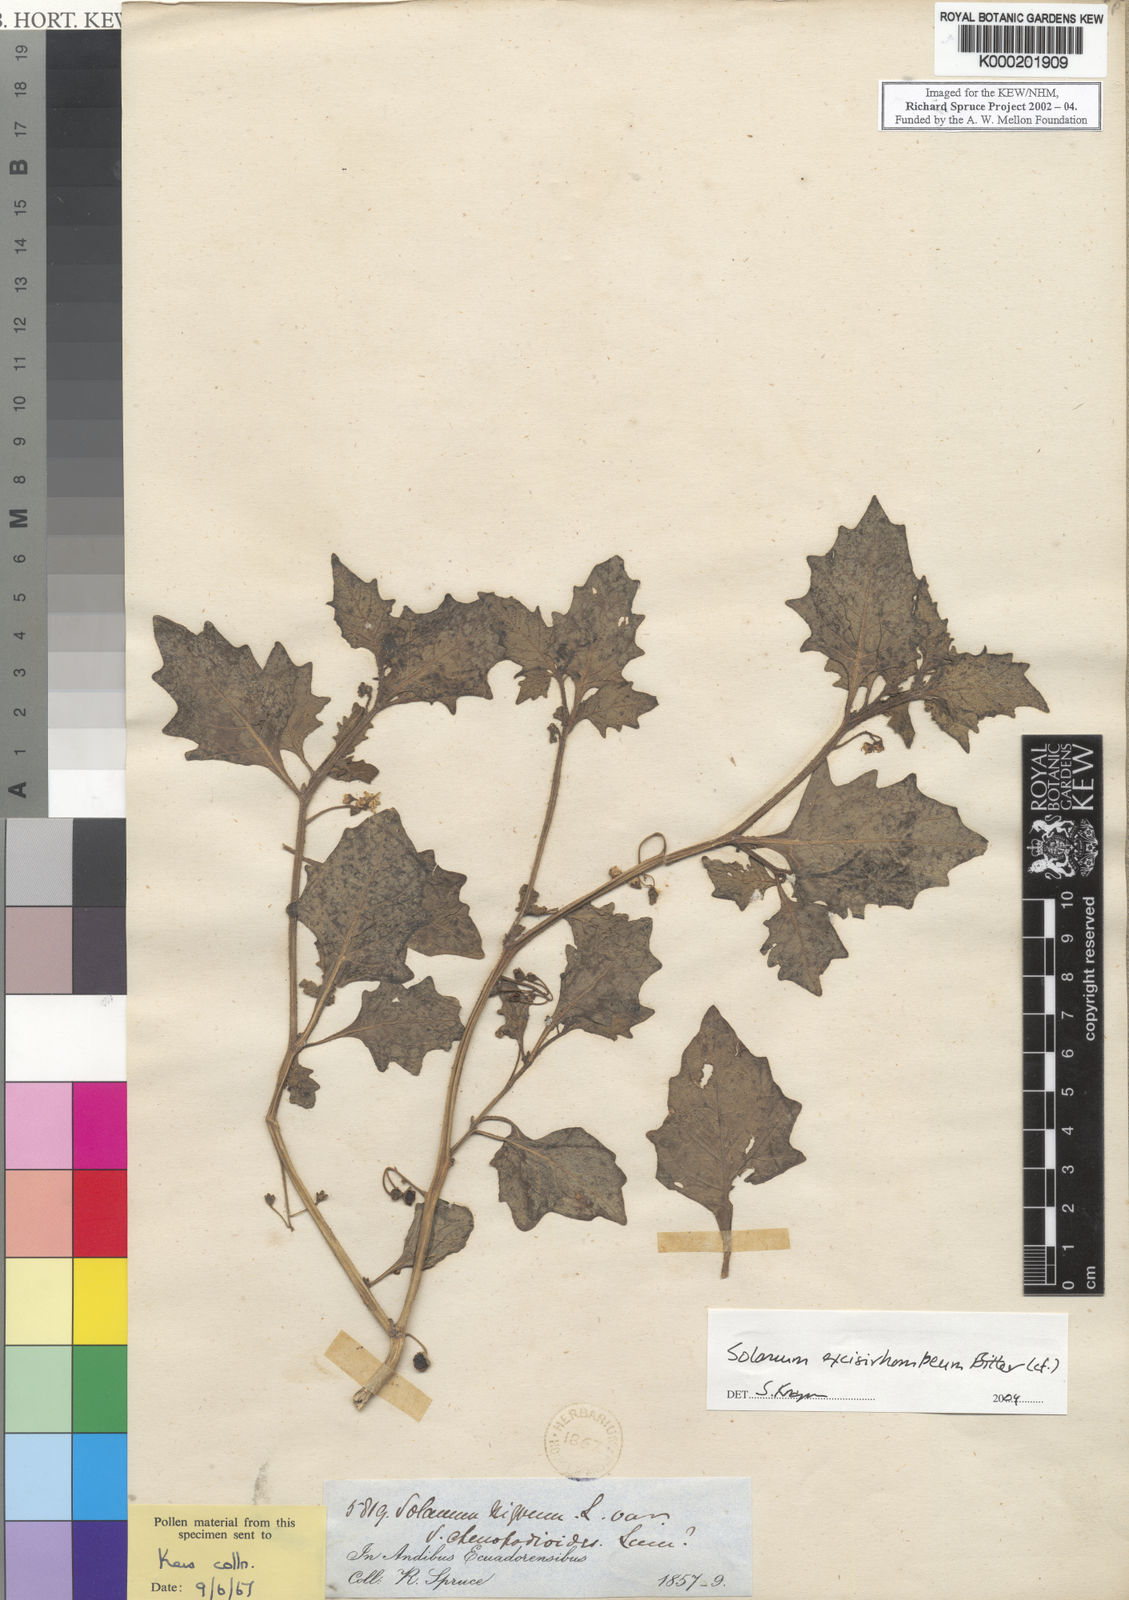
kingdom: Plantae
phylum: Tracheophyta
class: Magnoliopsida
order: Solanales
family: Solanaceae
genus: Solanum
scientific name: Solanum grandidentatum
